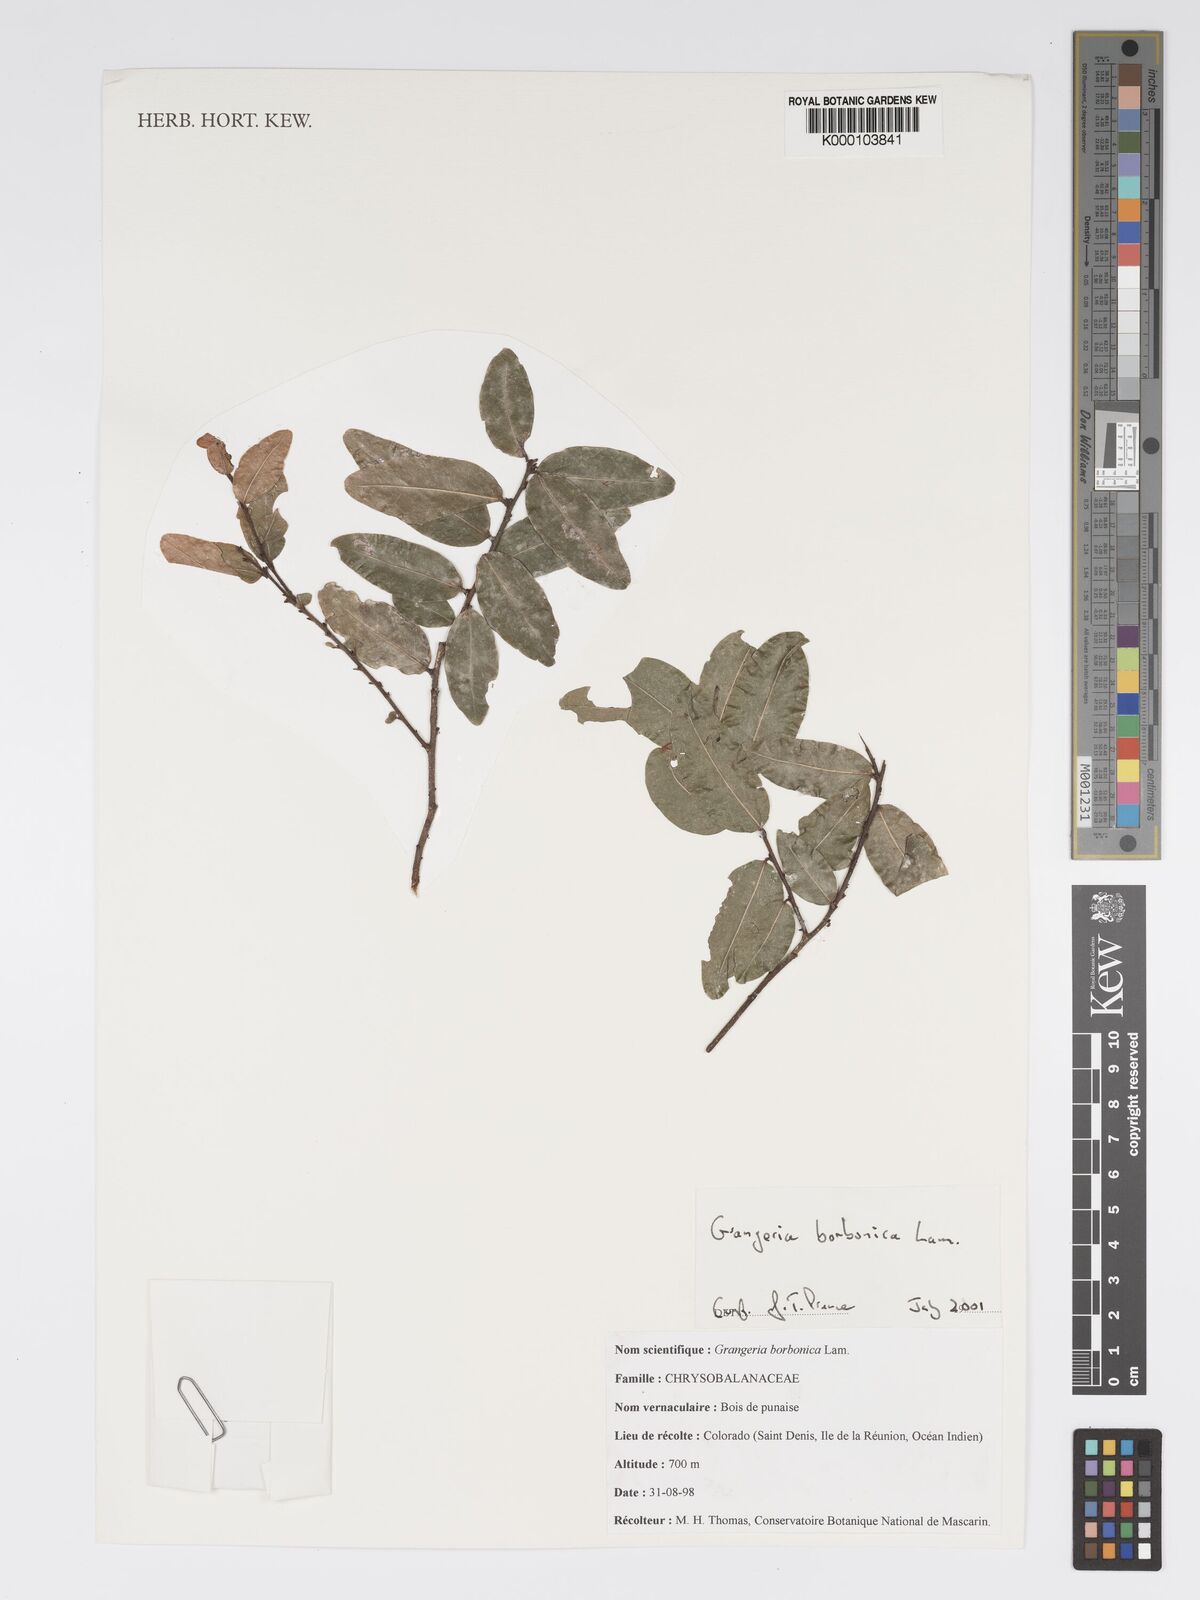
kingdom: Plantae
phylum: Tracheophyta
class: Magnoliopsida
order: Malpighiales
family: Chrysobalanaceae
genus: Grangeria
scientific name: Grangeria borbonica
